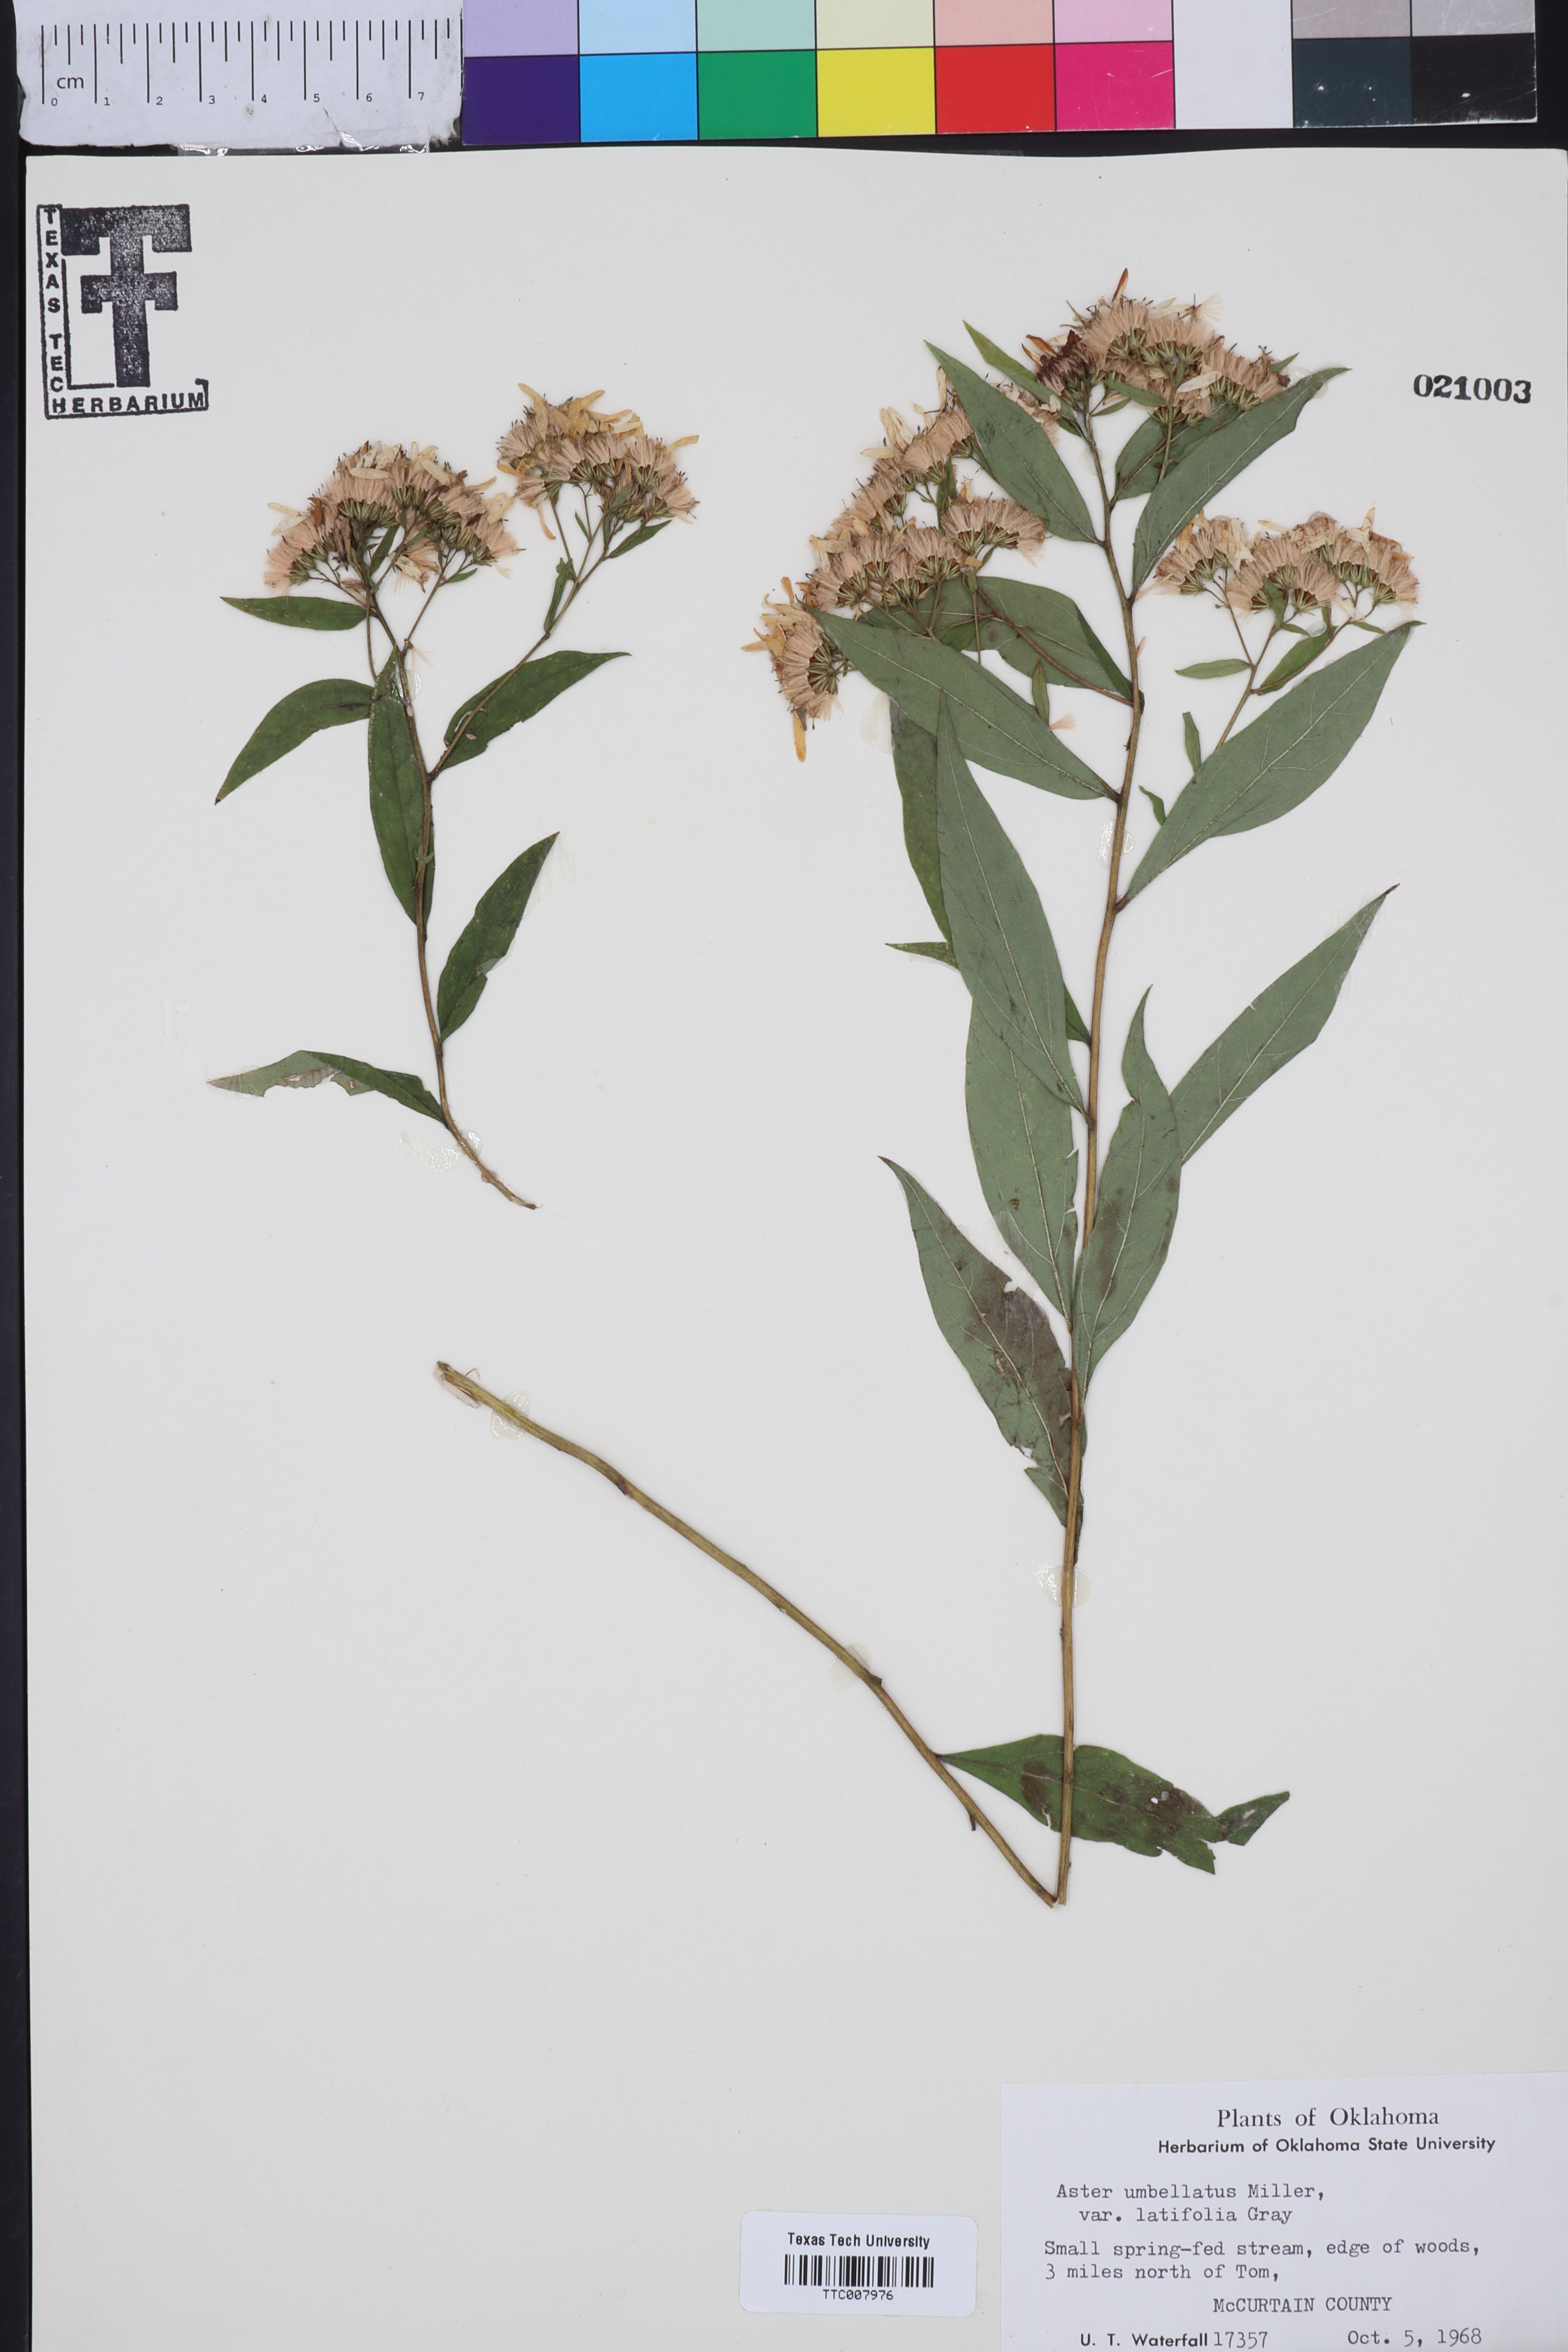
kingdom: Plantae
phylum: Tracheophyta
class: Magnoliopsida
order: Asterales
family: Asteraceae
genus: Doellingeria
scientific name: Doellingeria umbellata
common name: Flat-top white aster
